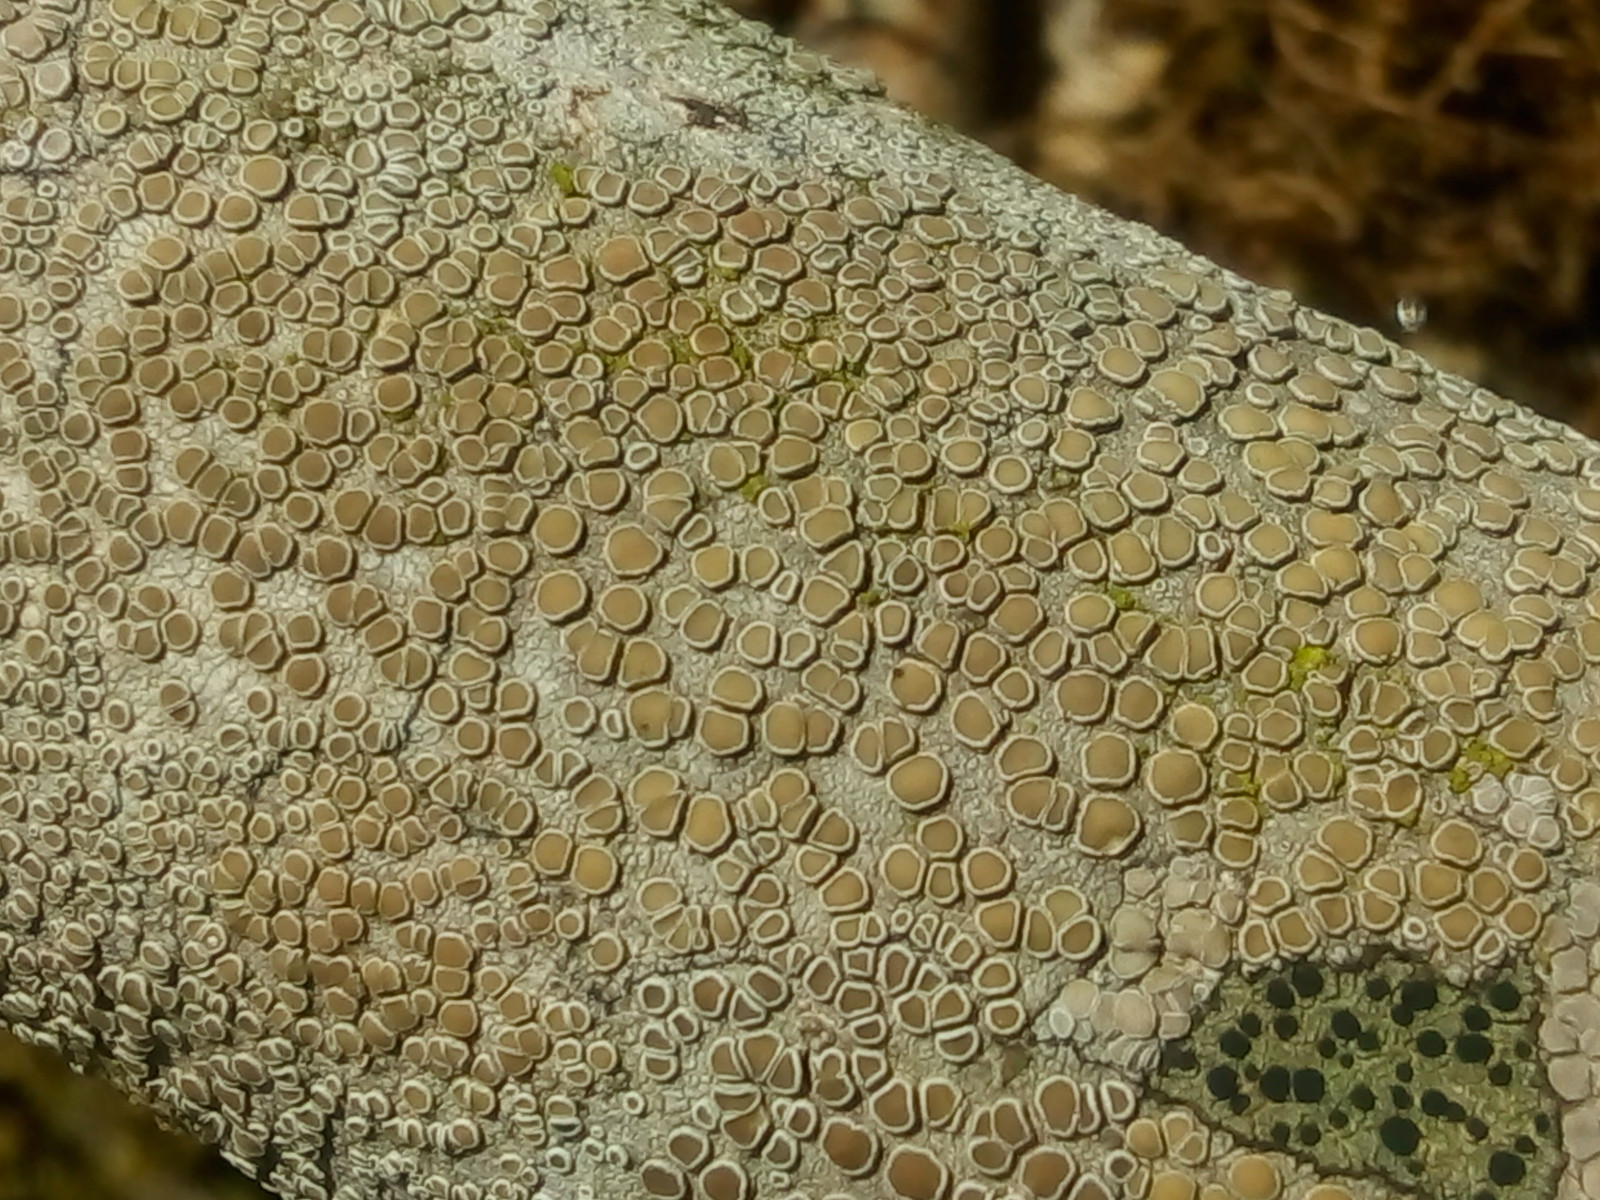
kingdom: Fungi
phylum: Ascomycota
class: Lecanoromycetes
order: Lecanorales
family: Lecanoraceae
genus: Lecanora
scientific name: Lecanora chlarotera
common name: brun kantskivelav
